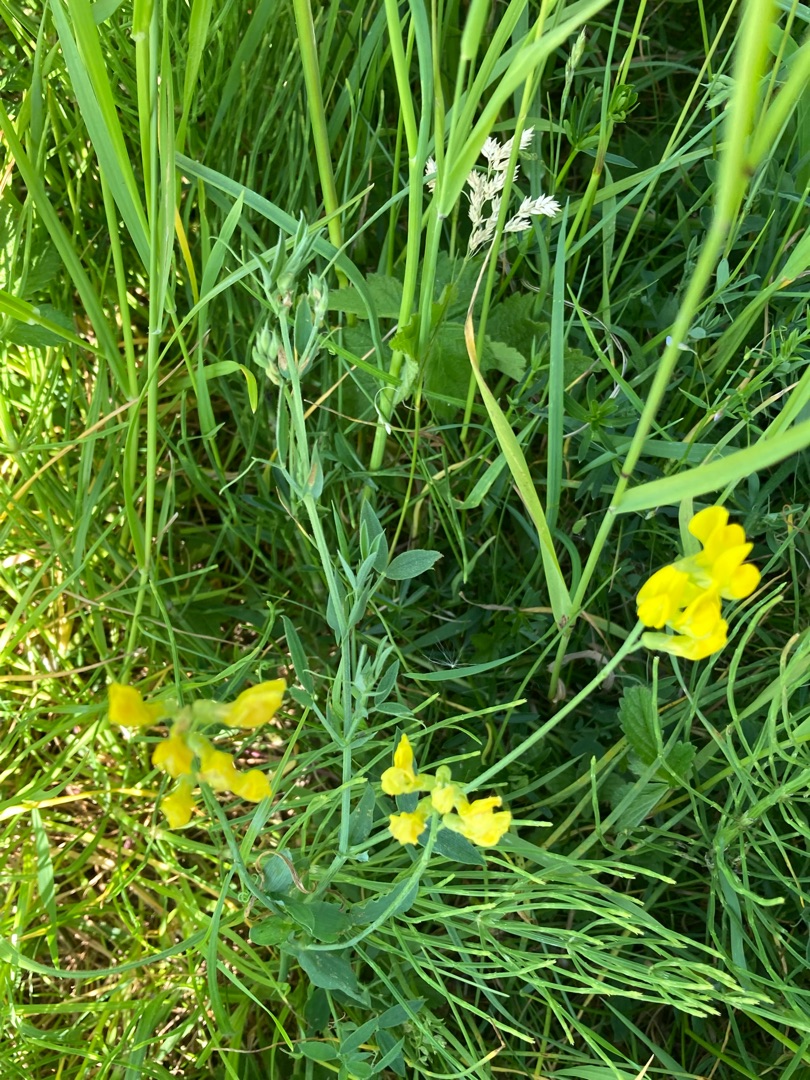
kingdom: Plantae
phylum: Tracheophyta
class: Magnoliopsida
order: Fabales
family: Fabaceae
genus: Lathyrus
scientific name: Lathyrus pratensis
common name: Gul fladbælg
